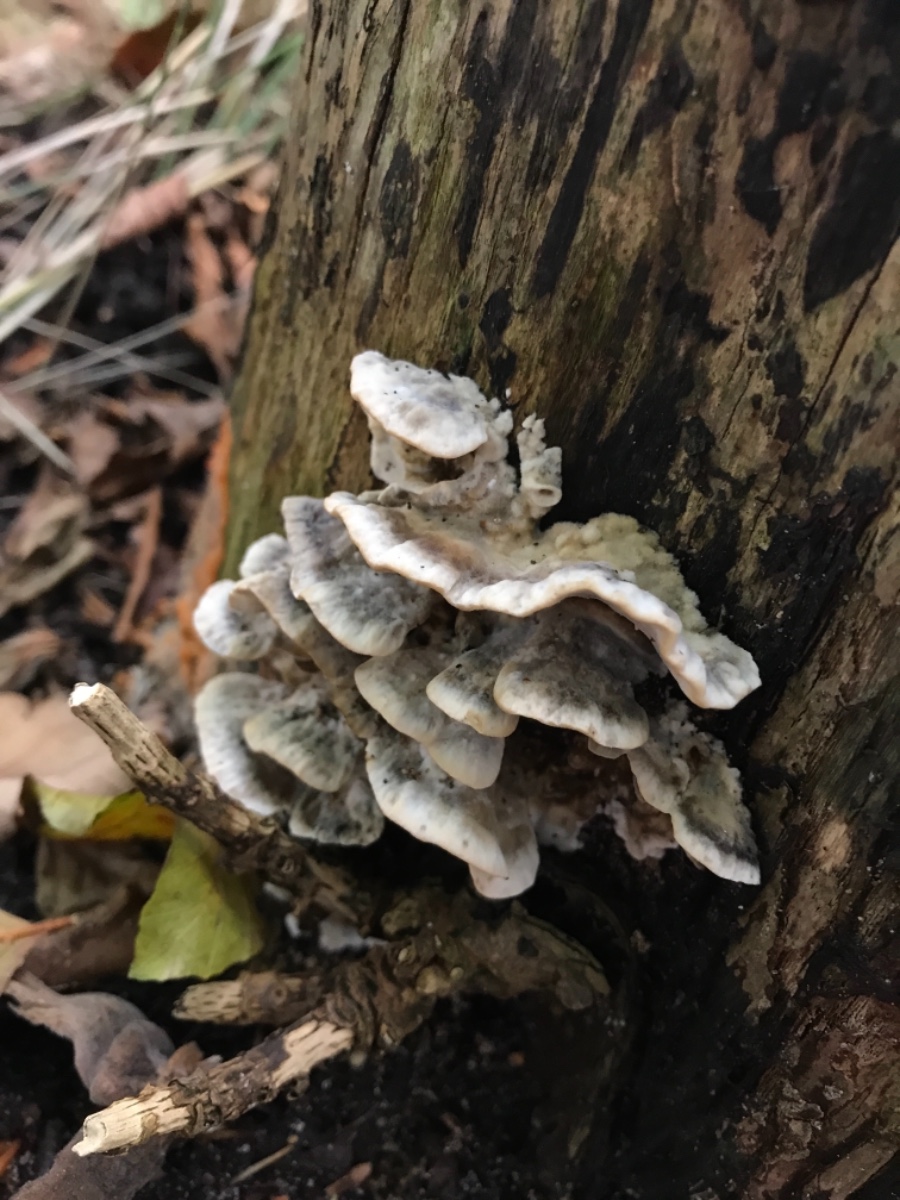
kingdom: Fungi
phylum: Basidiomycota
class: Agaricomycetes
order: Polyporales
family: Phanerochaetaceae
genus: Bjerkandera
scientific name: Bjerkandera adusta
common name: sveden sodporesvamp
